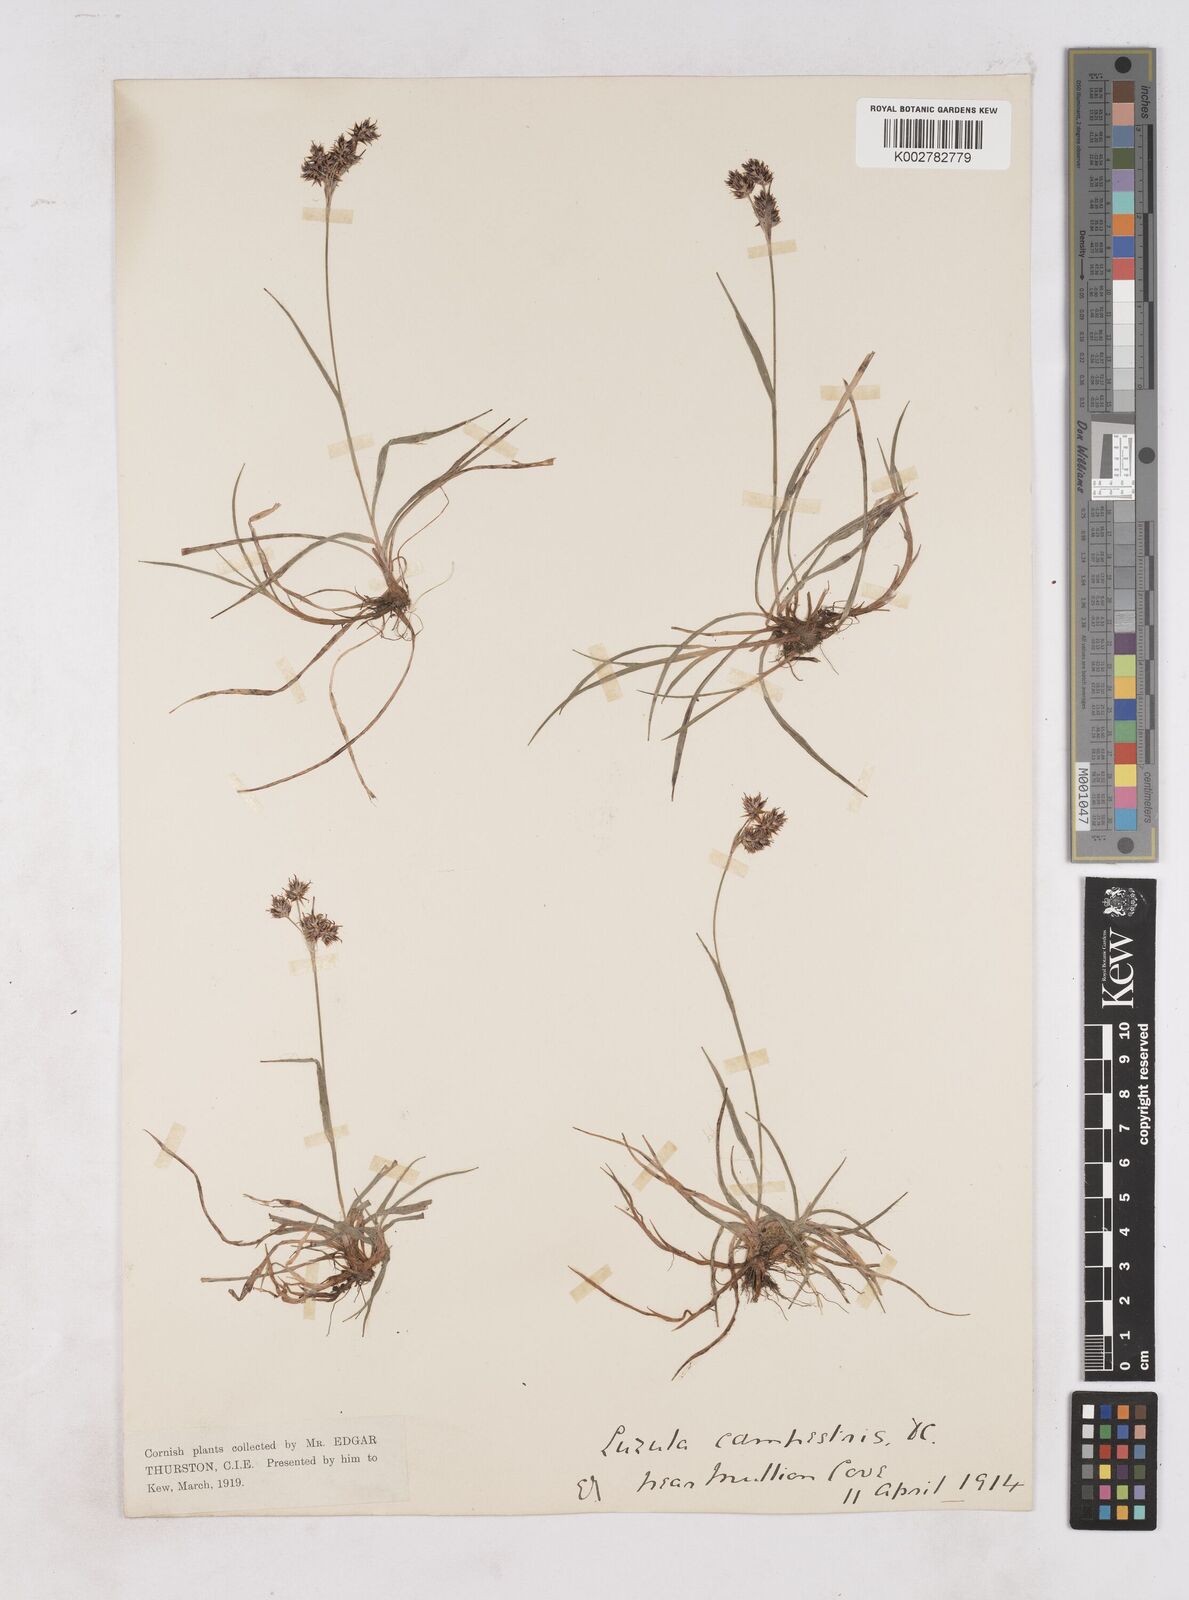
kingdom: Plantae
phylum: Tracheophyta
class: Liliopsida
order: Poales
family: Juncaceae
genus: Luzula
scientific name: Luzula campestris
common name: Field wood-rush
